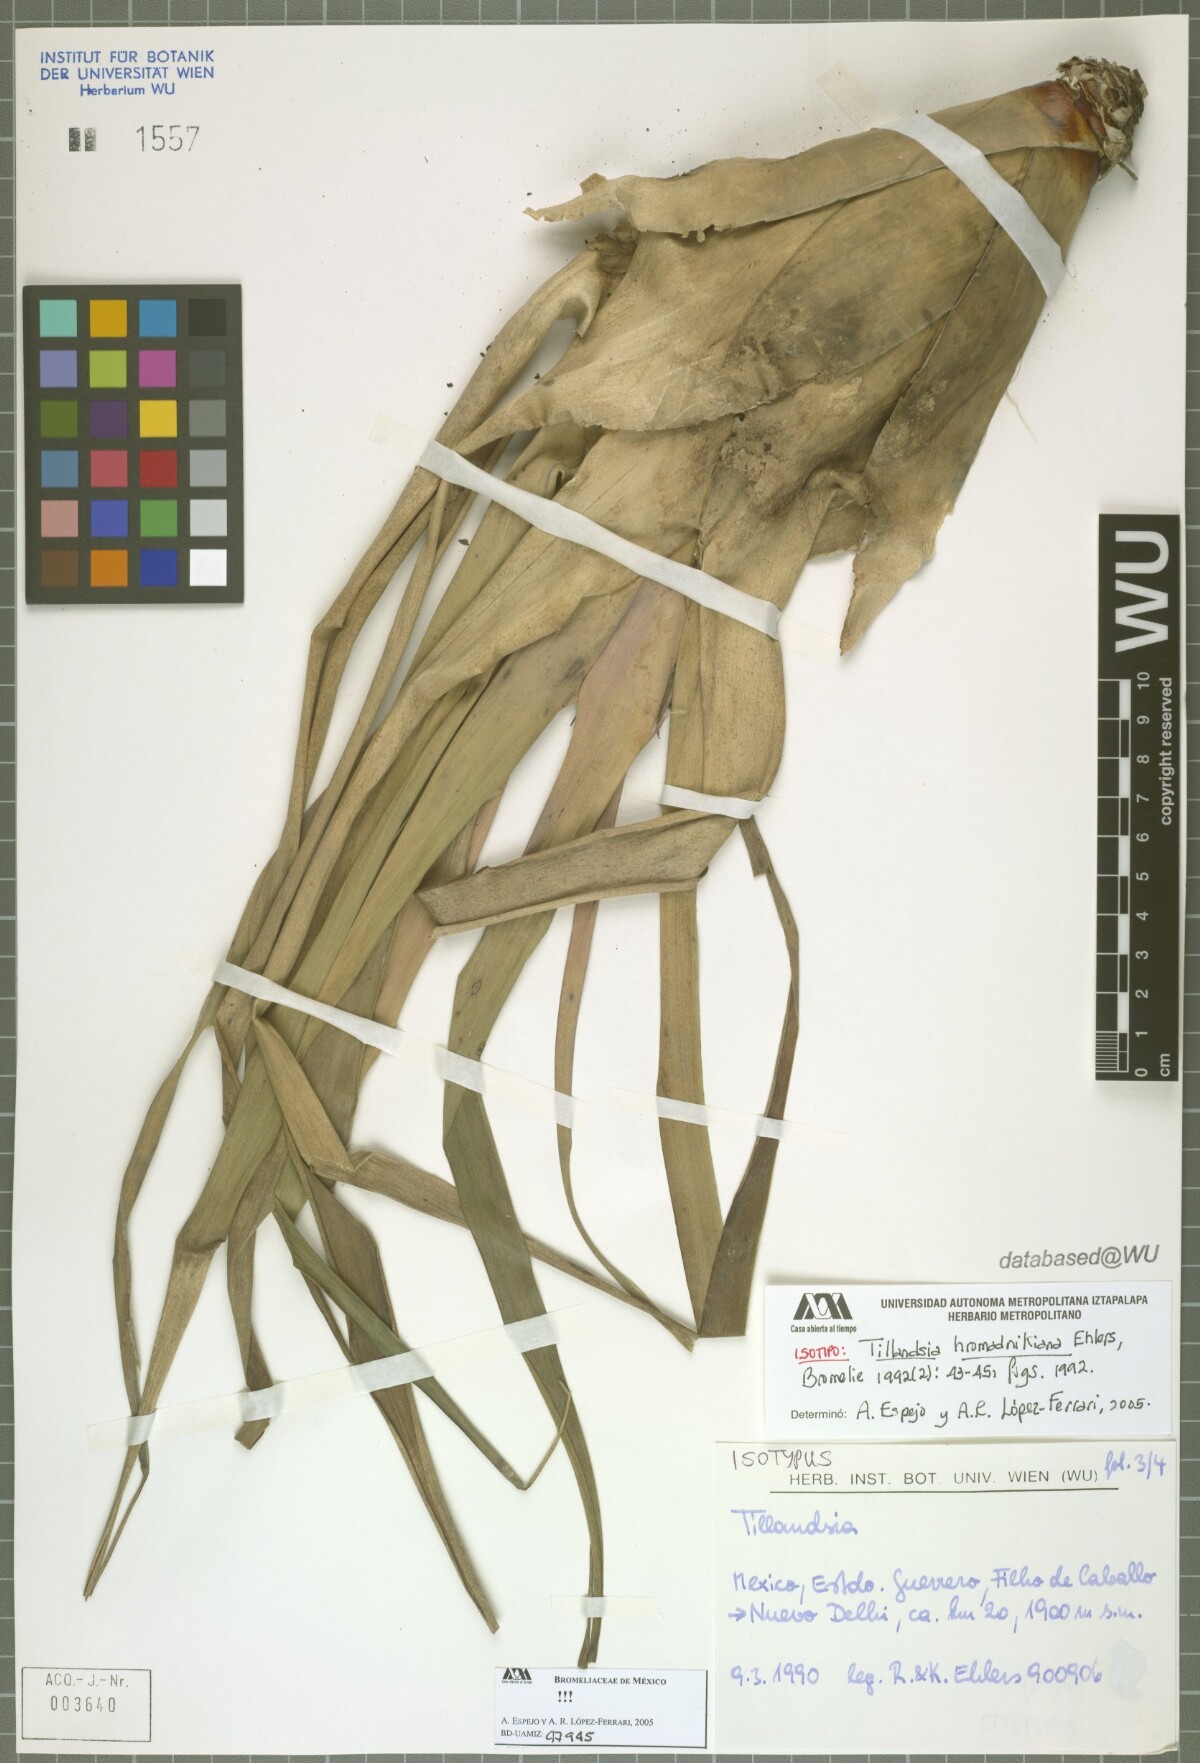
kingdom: Plantae
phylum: Tracheophyta
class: Liliopsida
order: Poales
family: Bromeliaceae
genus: Tillandsia
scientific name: Tillandsia prodigiosa
